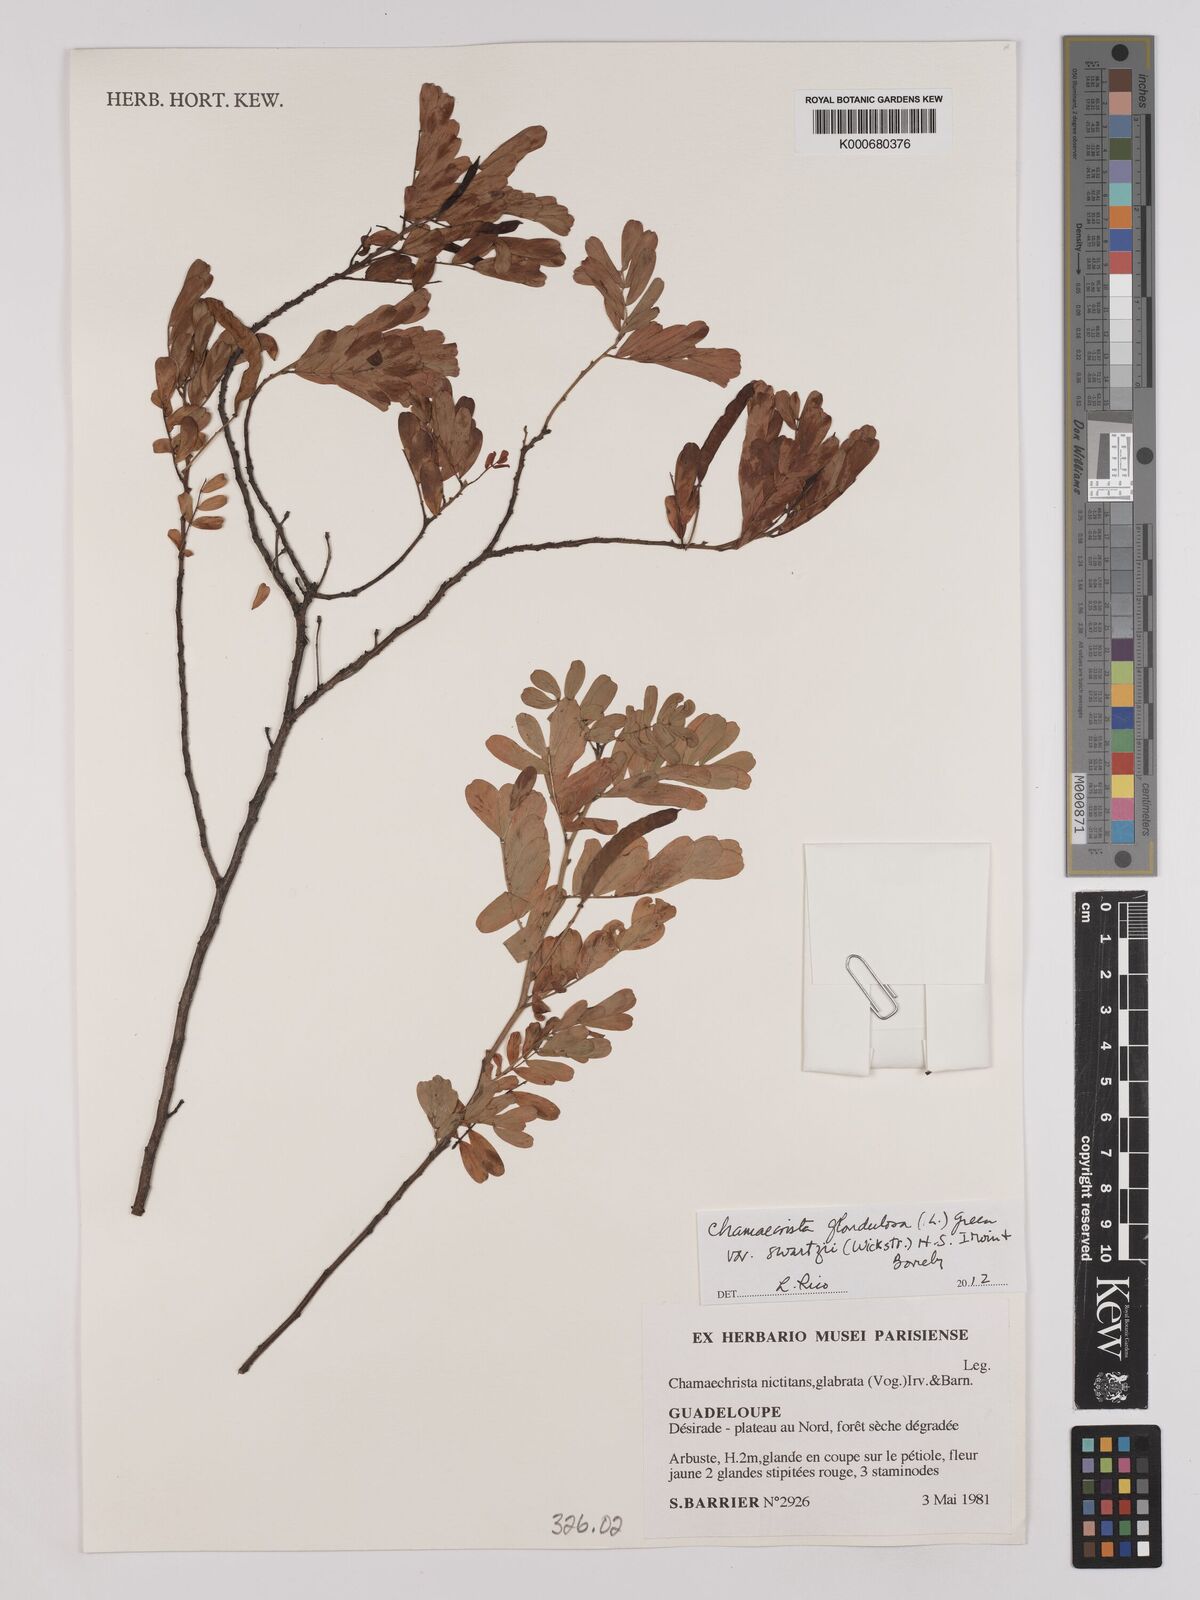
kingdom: Plantae
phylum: Tracheophyta
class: Magnoliopsida
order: Fabales
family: Fabaceae
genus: Chamaecrista
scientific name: Chamaecrista nictitans
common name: Sensitive cassia
